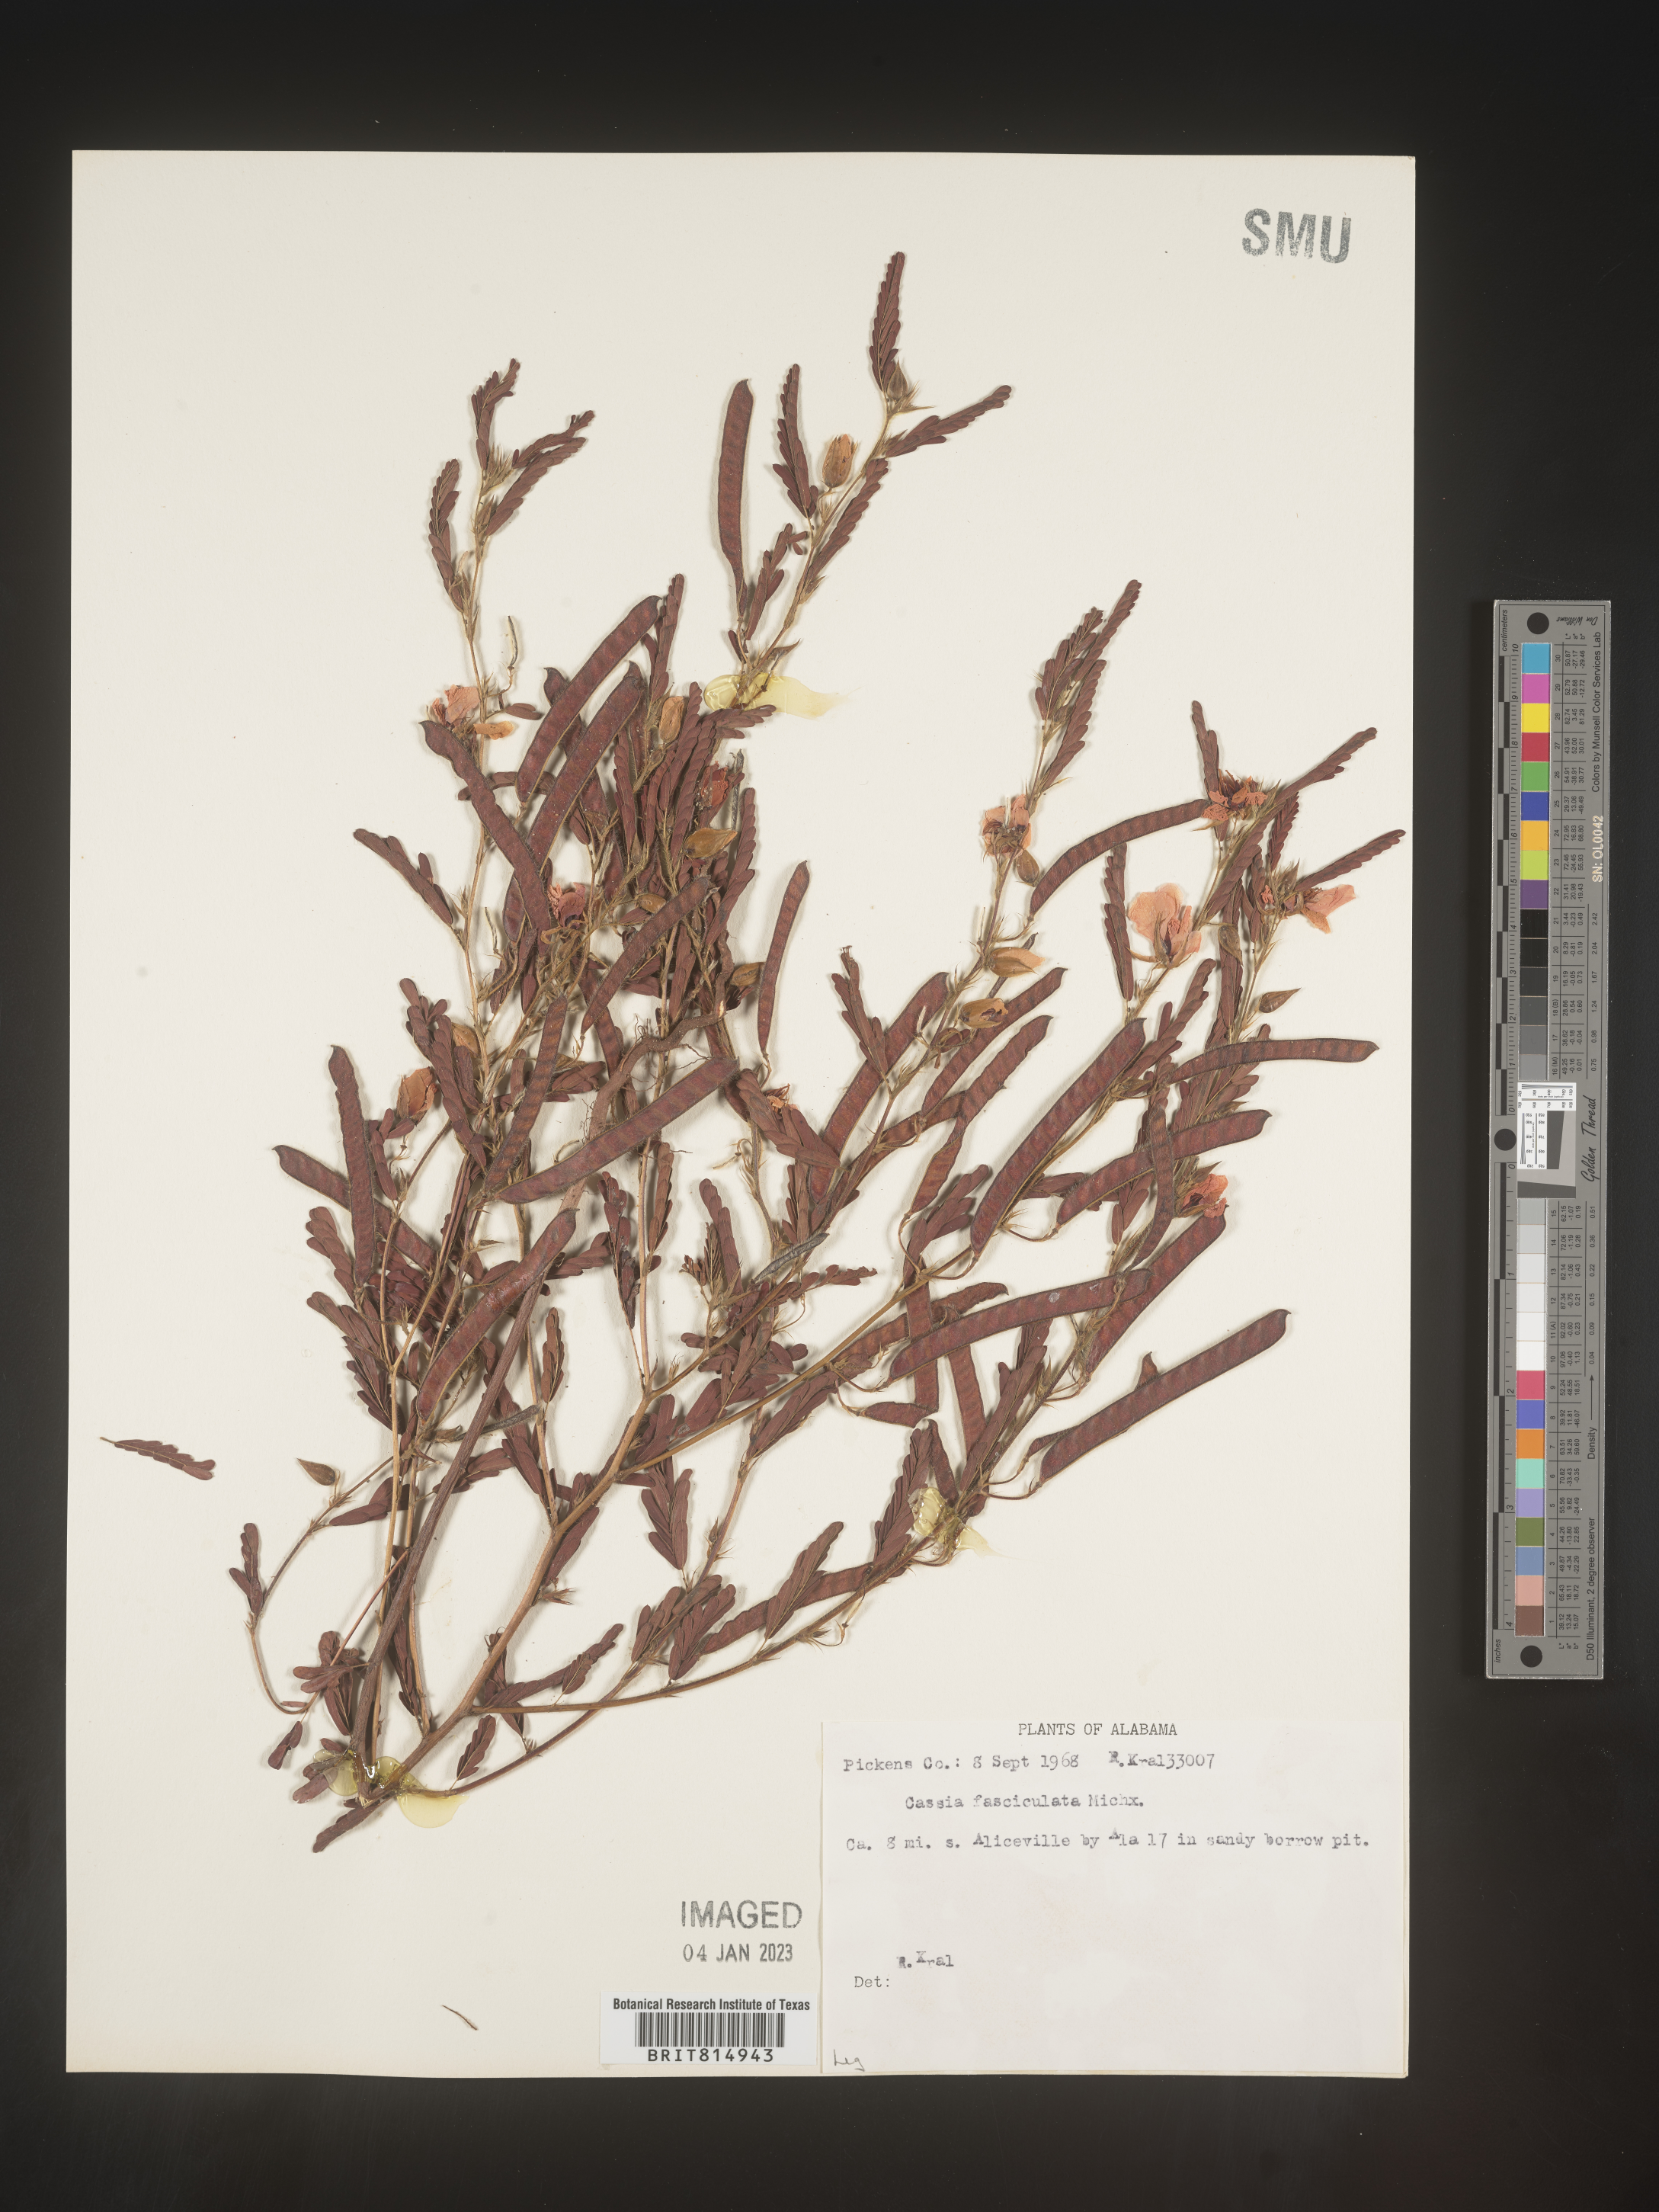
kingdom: Plantae
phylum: Tracheophyta
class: Magnoliopsida
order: Fabales
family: Fabaceae
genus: Chamaecrista
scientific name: Chamaecrista fasciculata
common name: Golden cassia
